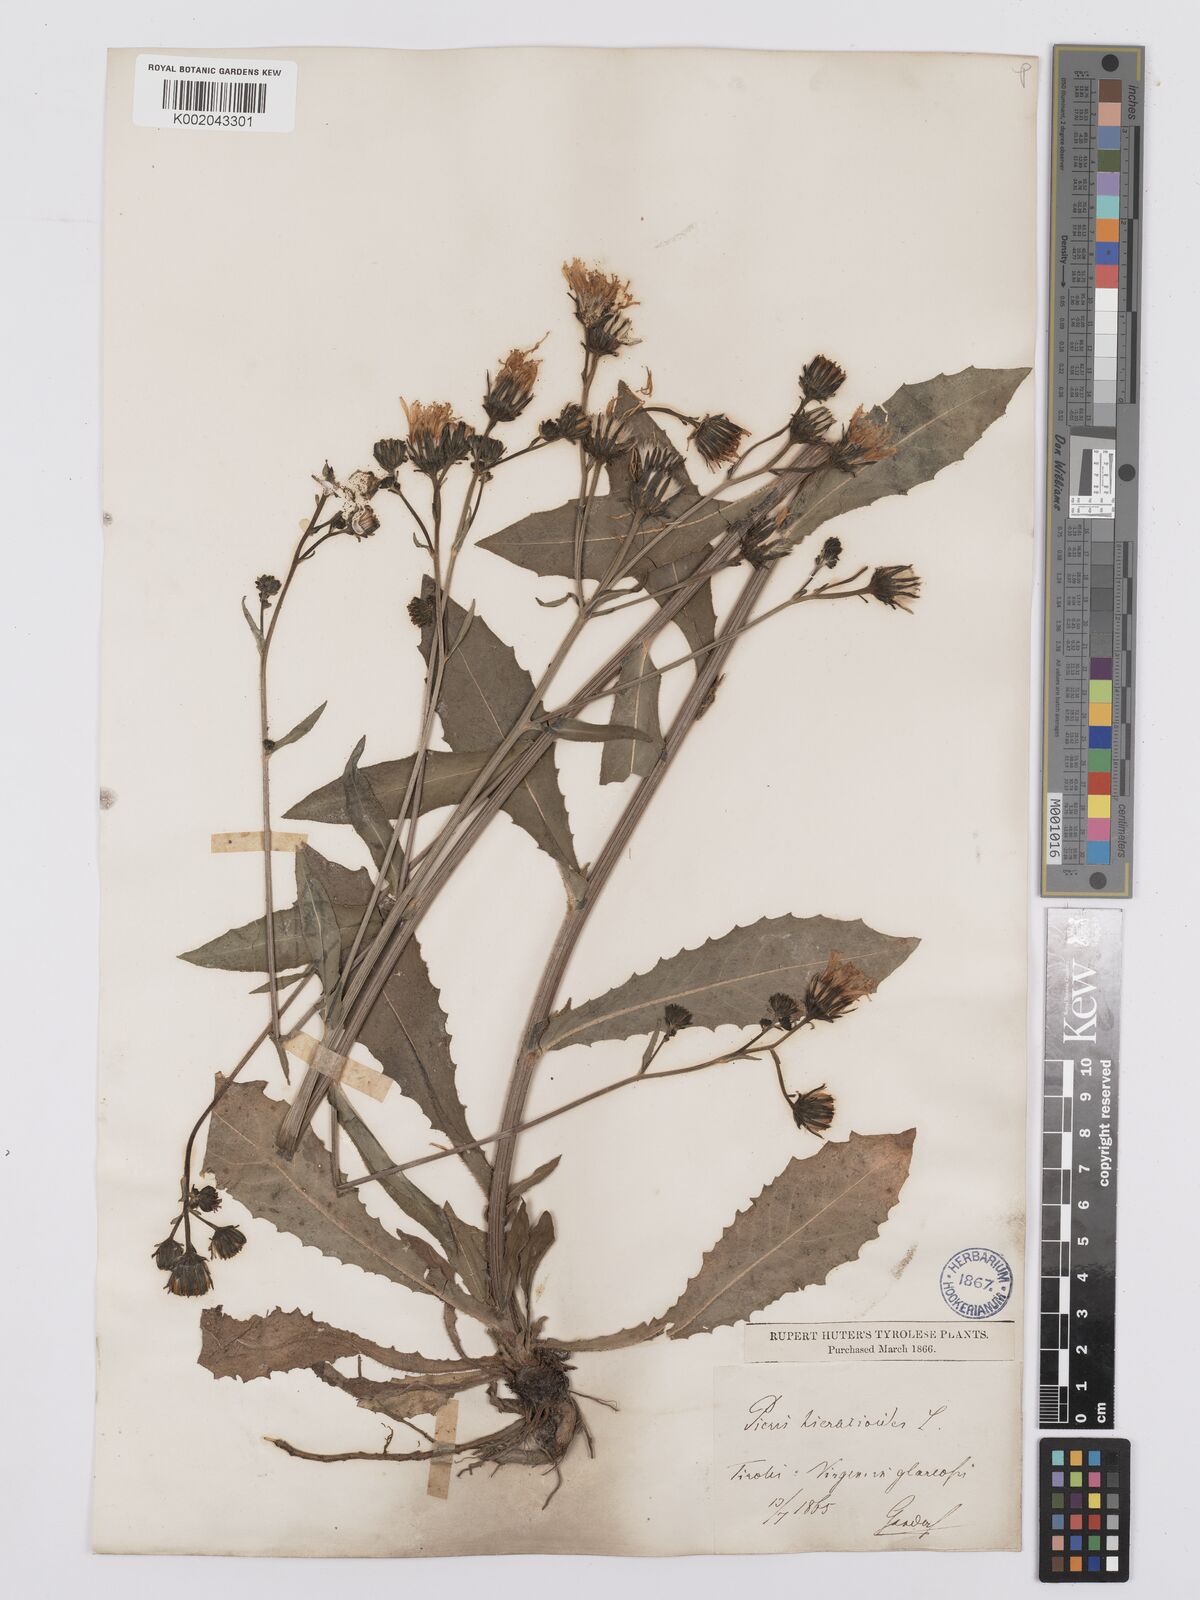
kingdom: Plantae
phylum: Tracheophyta
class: Magnoliopsida
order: Asterales
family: Asteraceae
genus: Picris
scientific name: Picris hieracioides
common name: Hawkweed oxtongue
